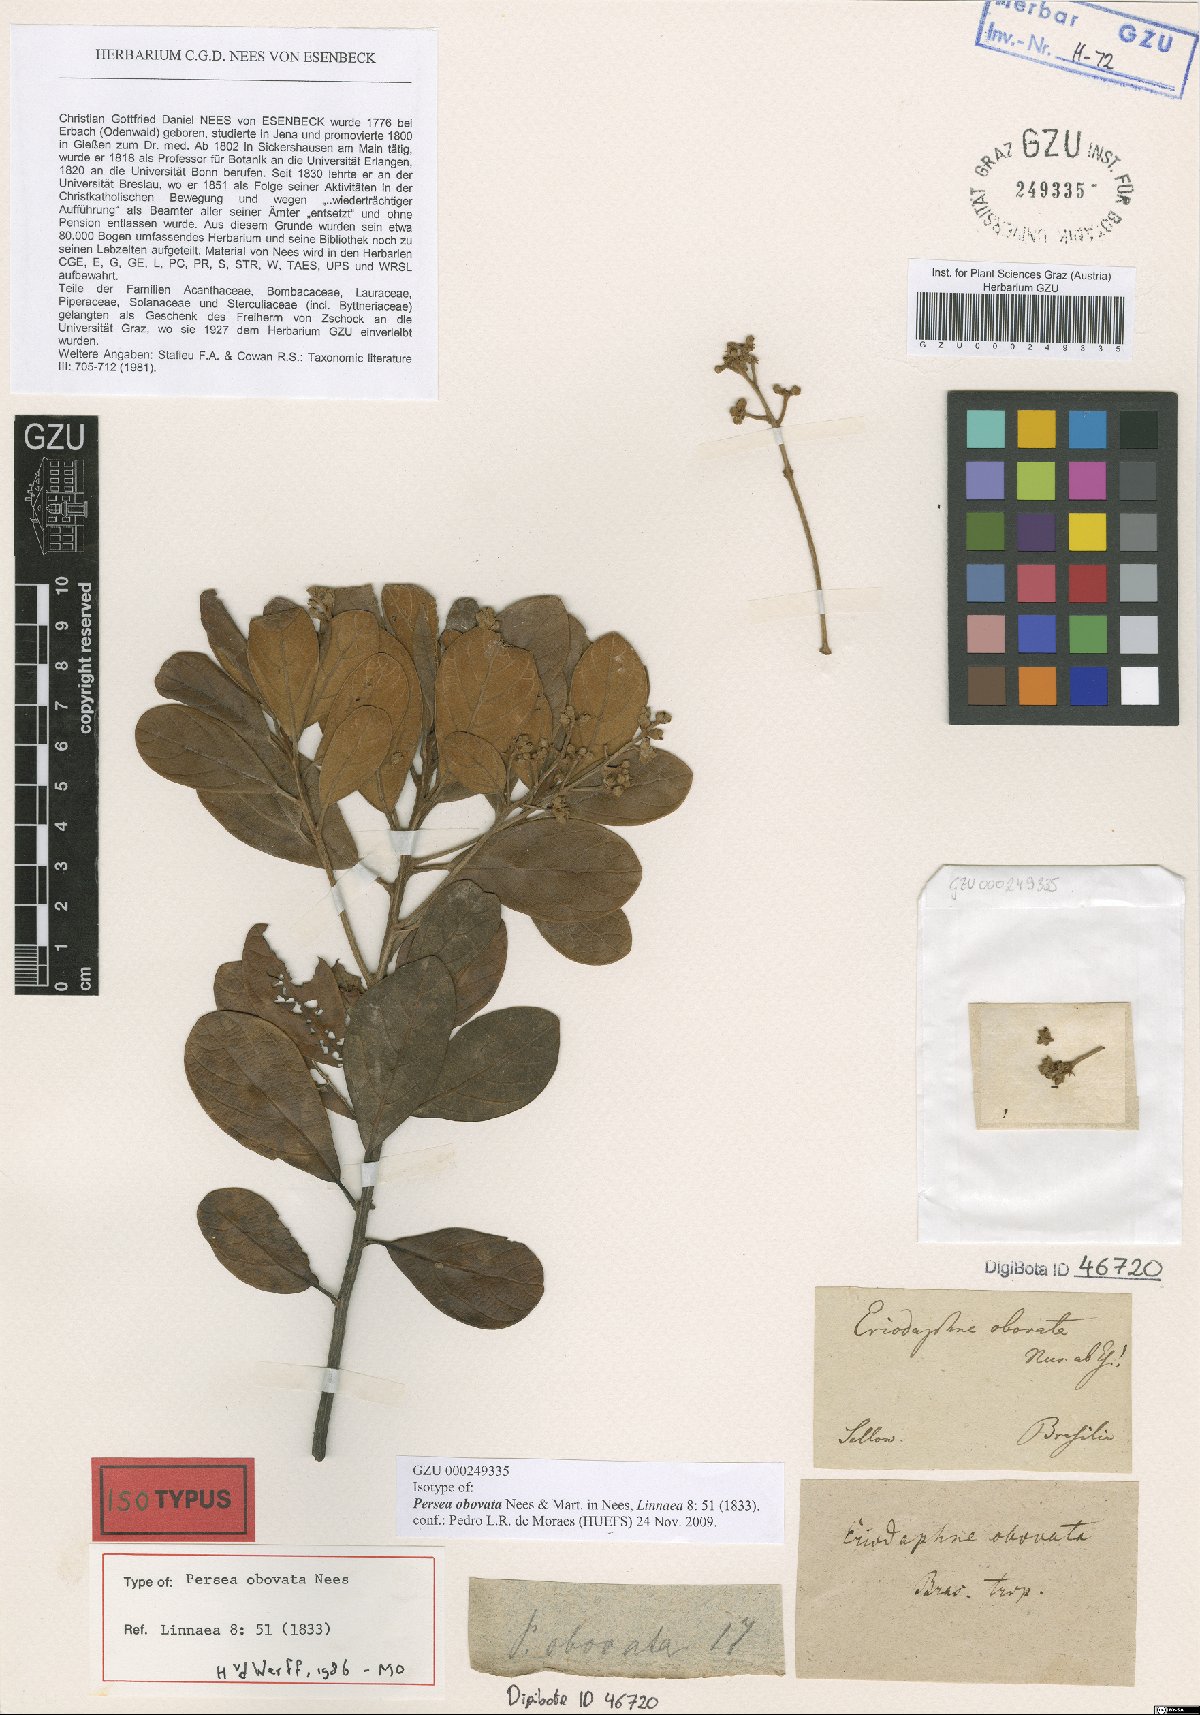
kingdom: Plantae
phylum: Tracheophyta
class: Magnoliopsida
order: Laurales
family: Lauraceae
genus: Persea
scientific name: Persea obovata
